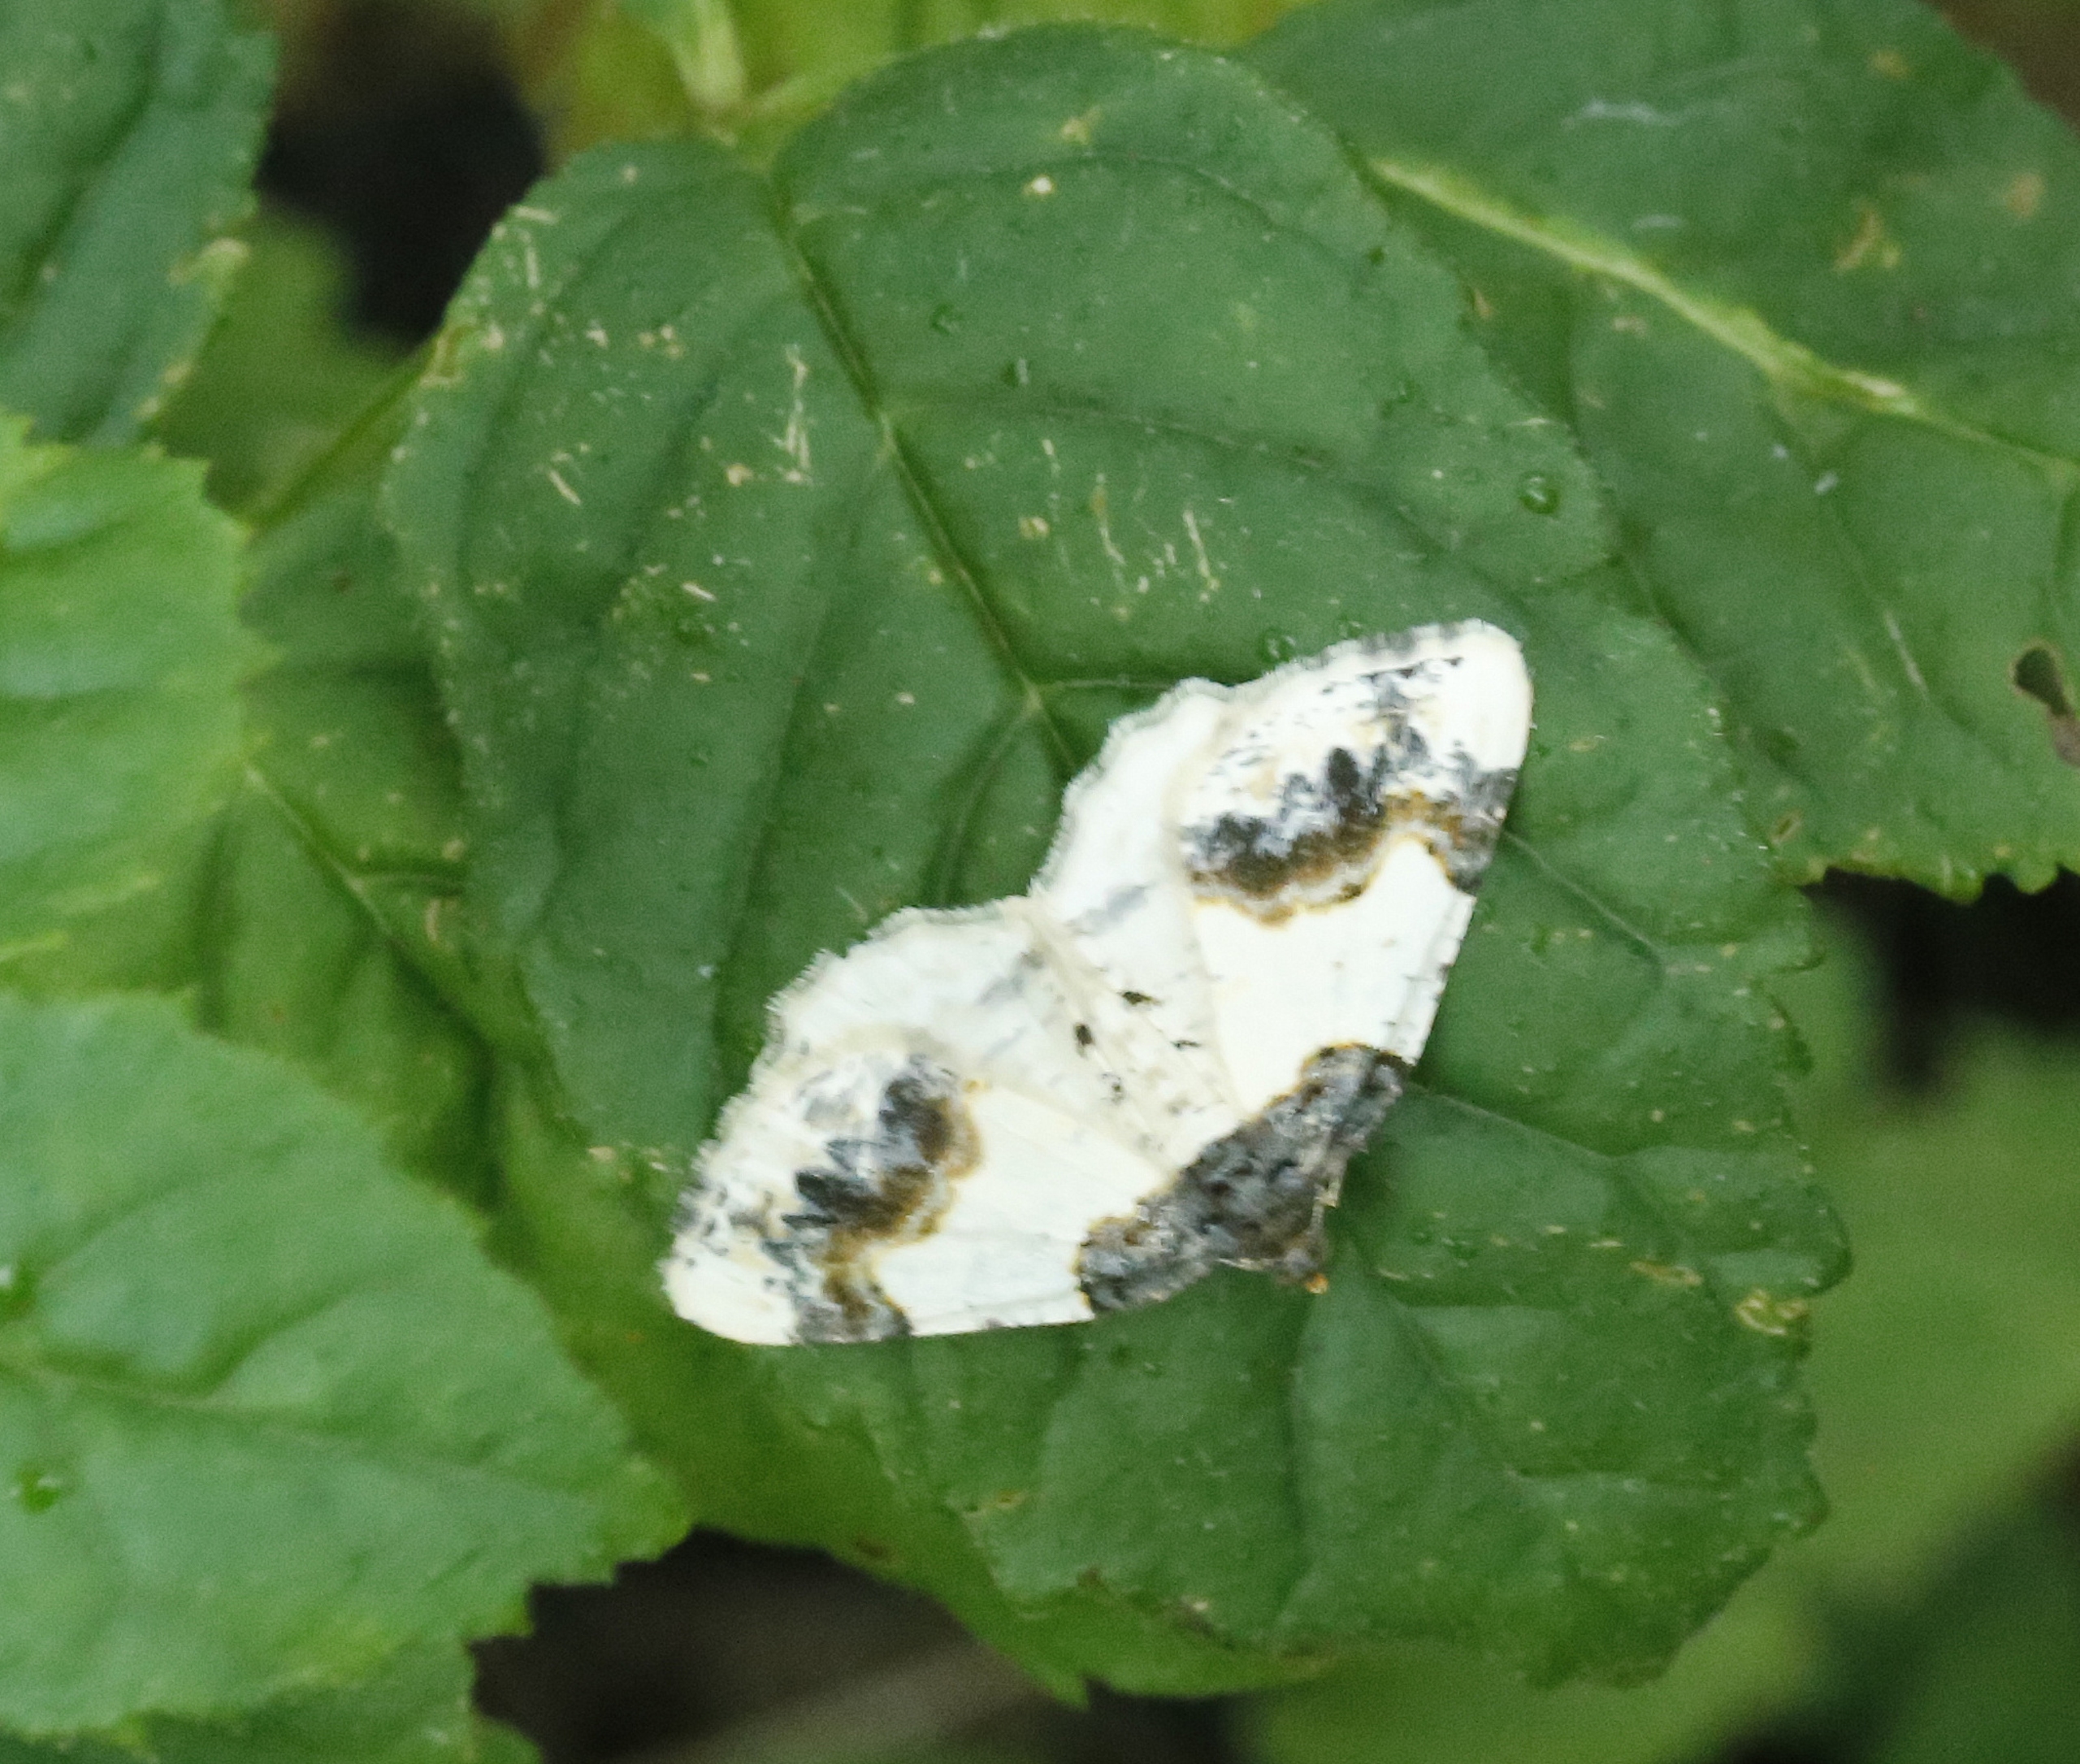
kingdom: Animalia
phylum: Arthropoda
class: Insecta
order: Lepidoptera
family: Geometridae
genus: Ligdia
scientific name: Ligdia adustata
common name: Benvedmåler
